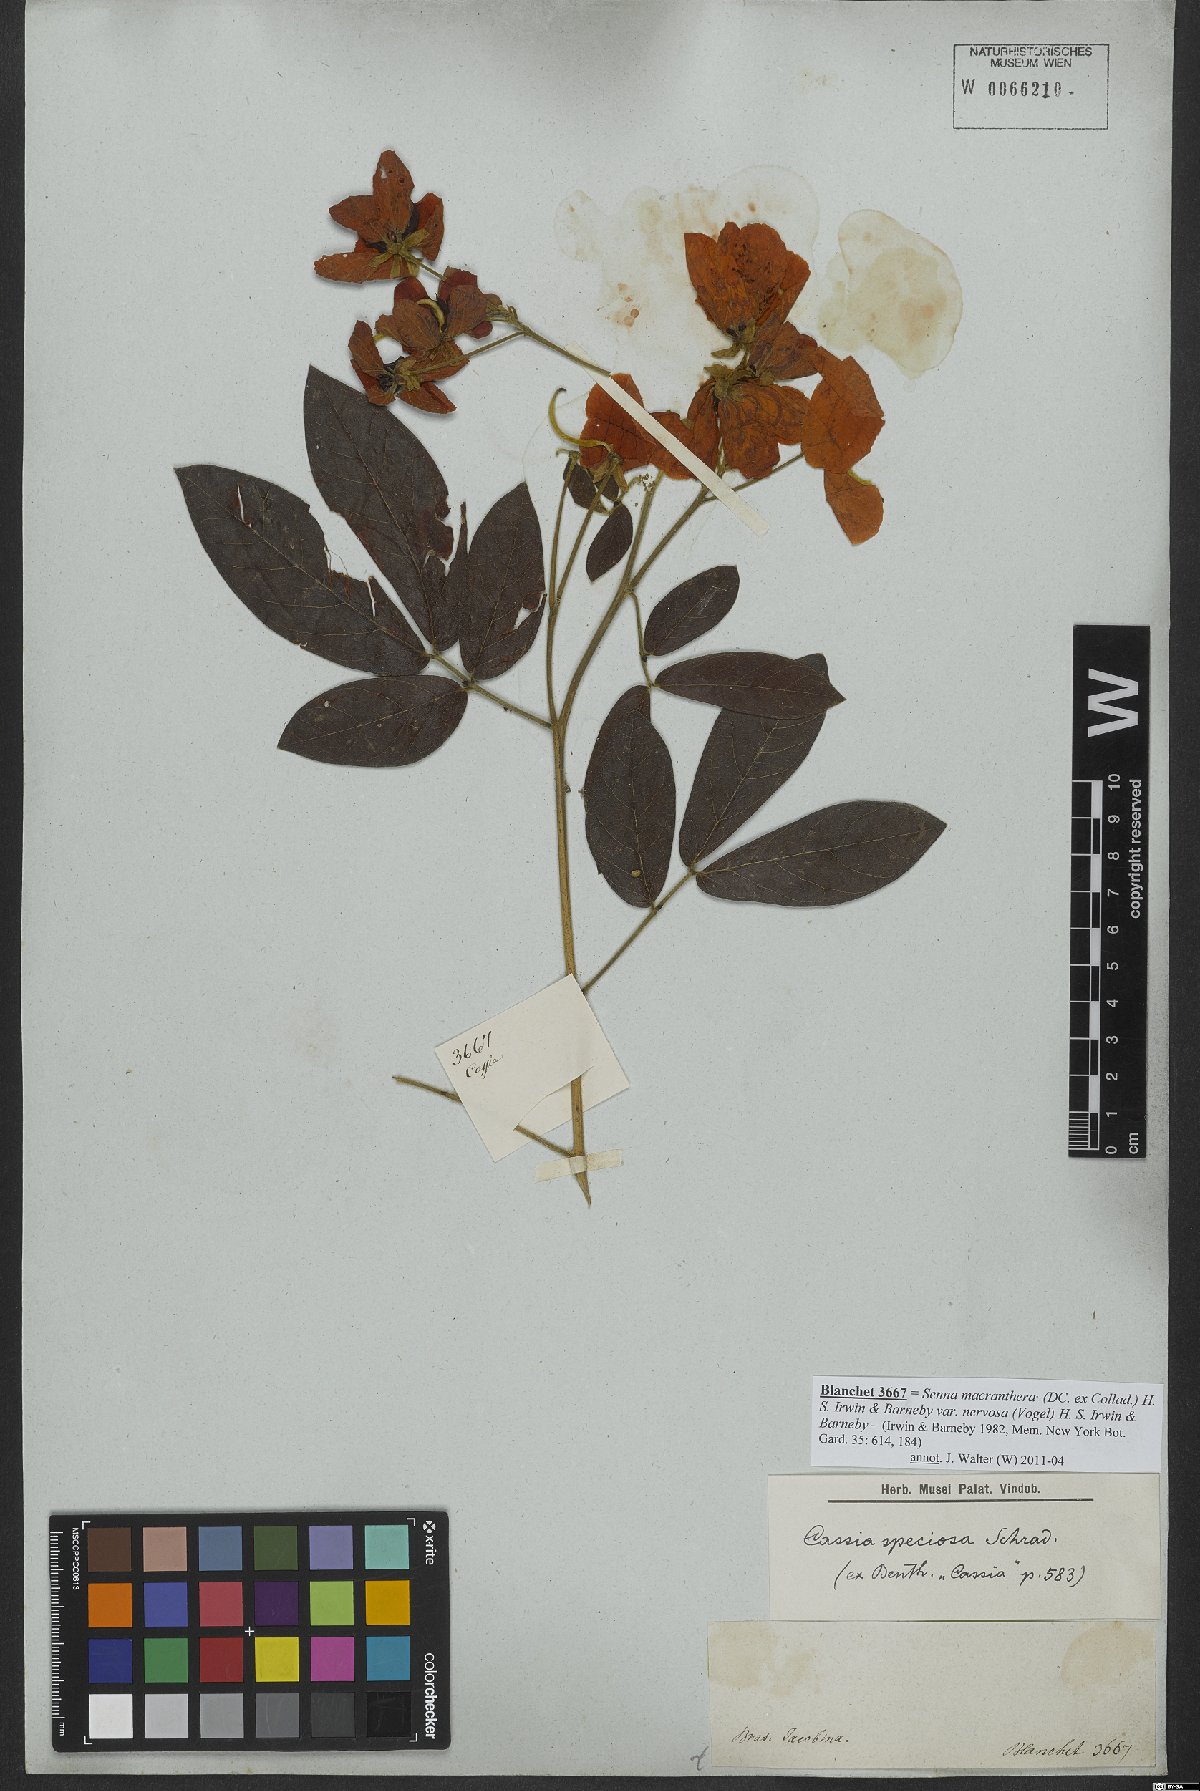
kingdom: Plantae
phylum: Tracheophyta
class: Magnoliopsida
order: Fabales
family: Fabaceae
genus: Senna
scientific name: Senna macranthera
